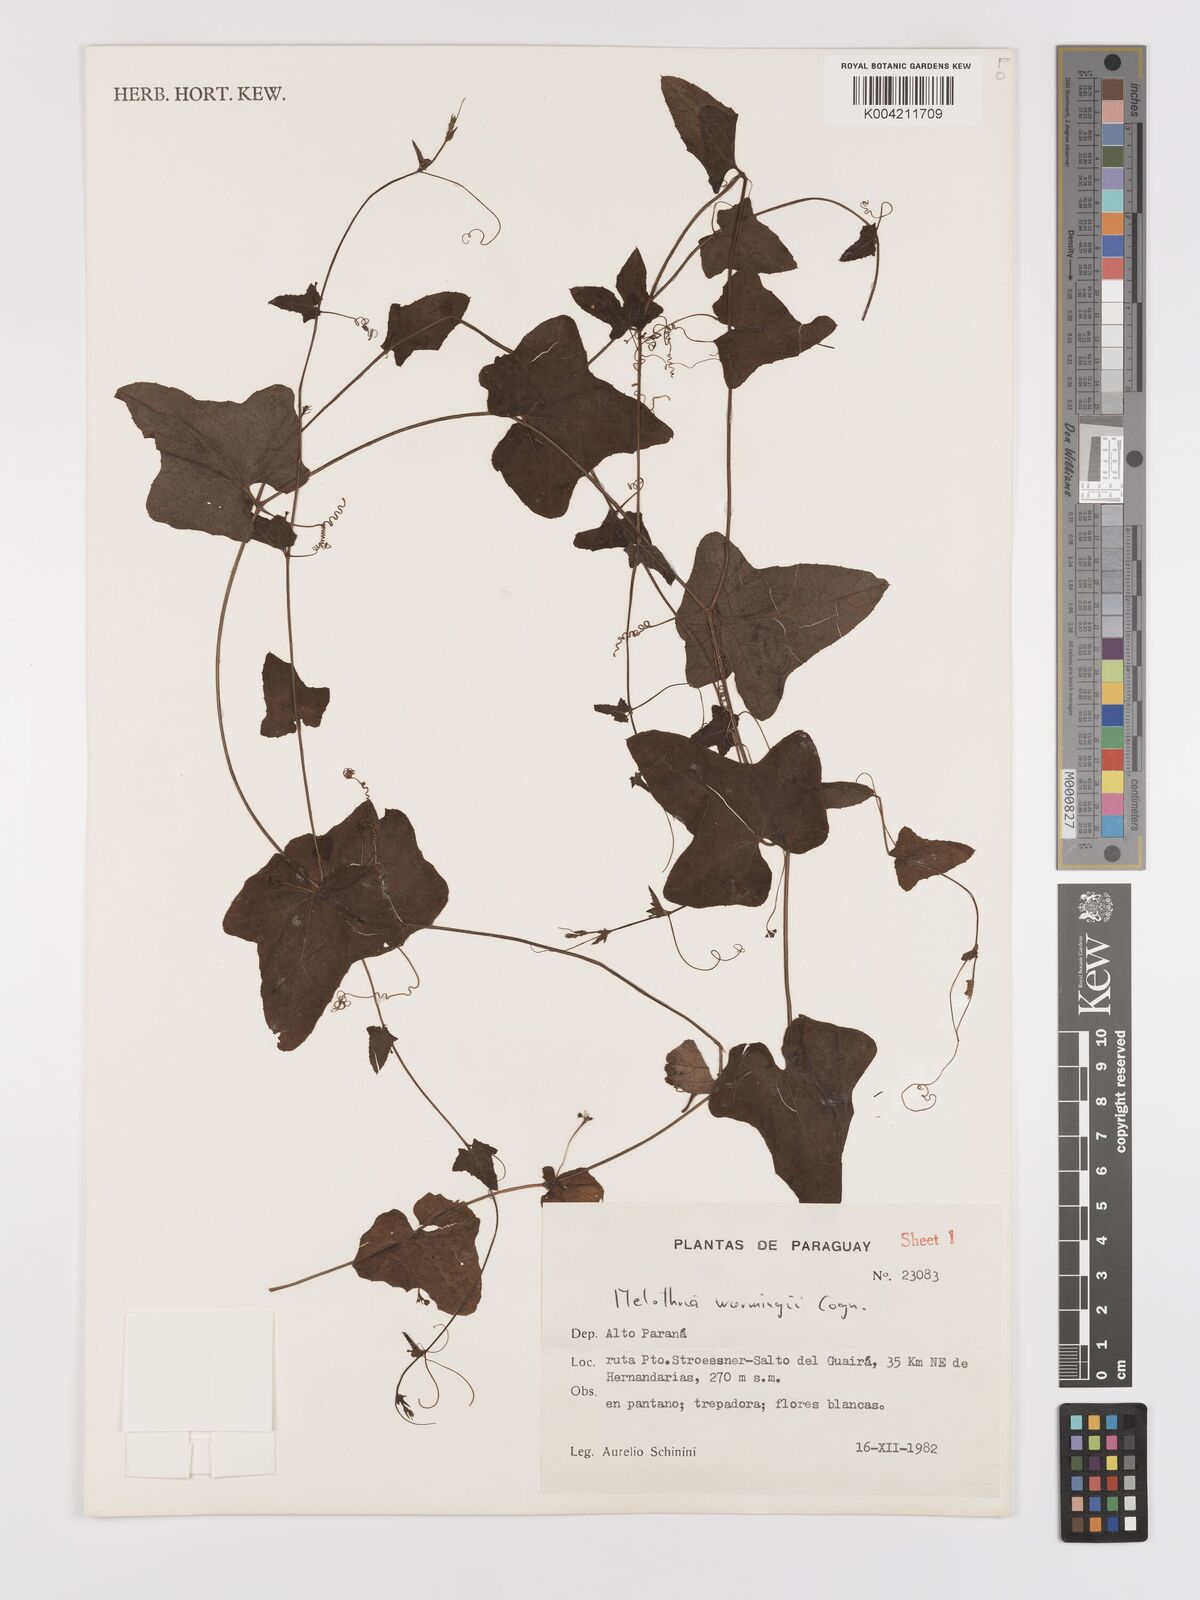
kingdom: Plantae
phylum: Tracheophyta
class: Magnoliopsida
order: Cucurbitales
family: Cucurbitaceae
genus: Melothria
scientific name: Melothria warmingii
